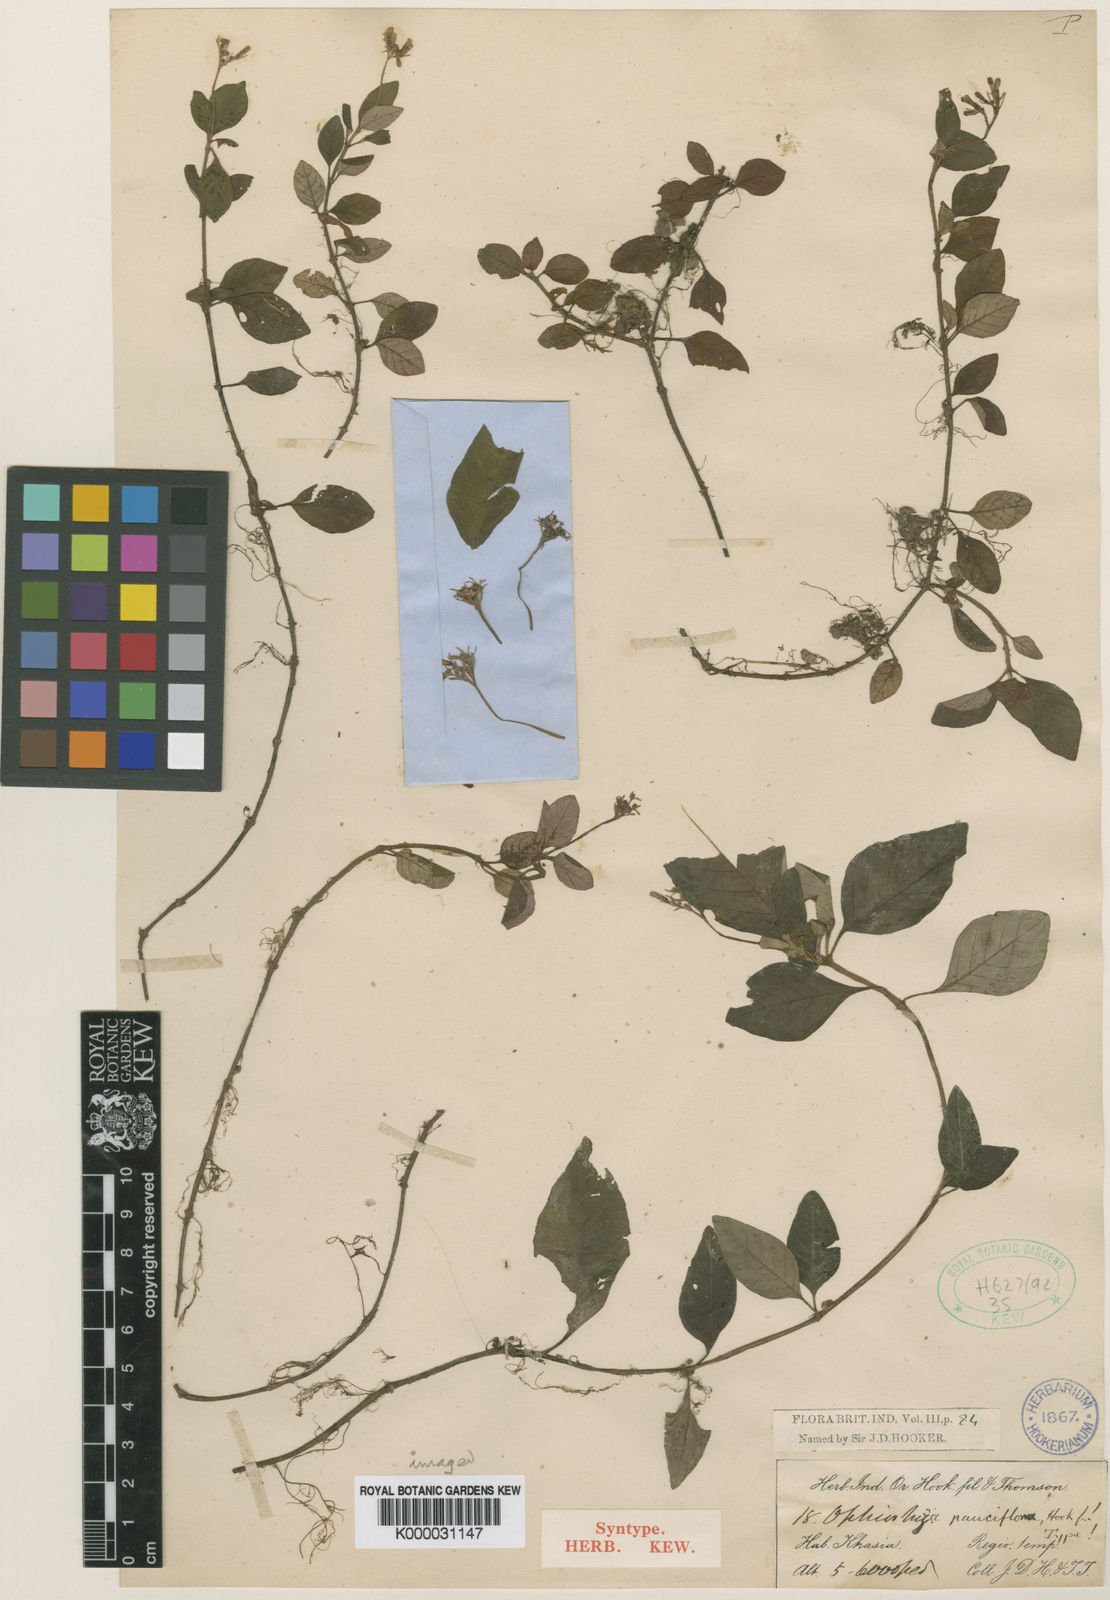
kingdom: Plantae
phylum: Tracheophyta
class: Magnoliopsida
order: Gentianales
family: Rubiaceae
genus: Ophiorrhiza
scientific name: Ophiorrhiza pauciflora
